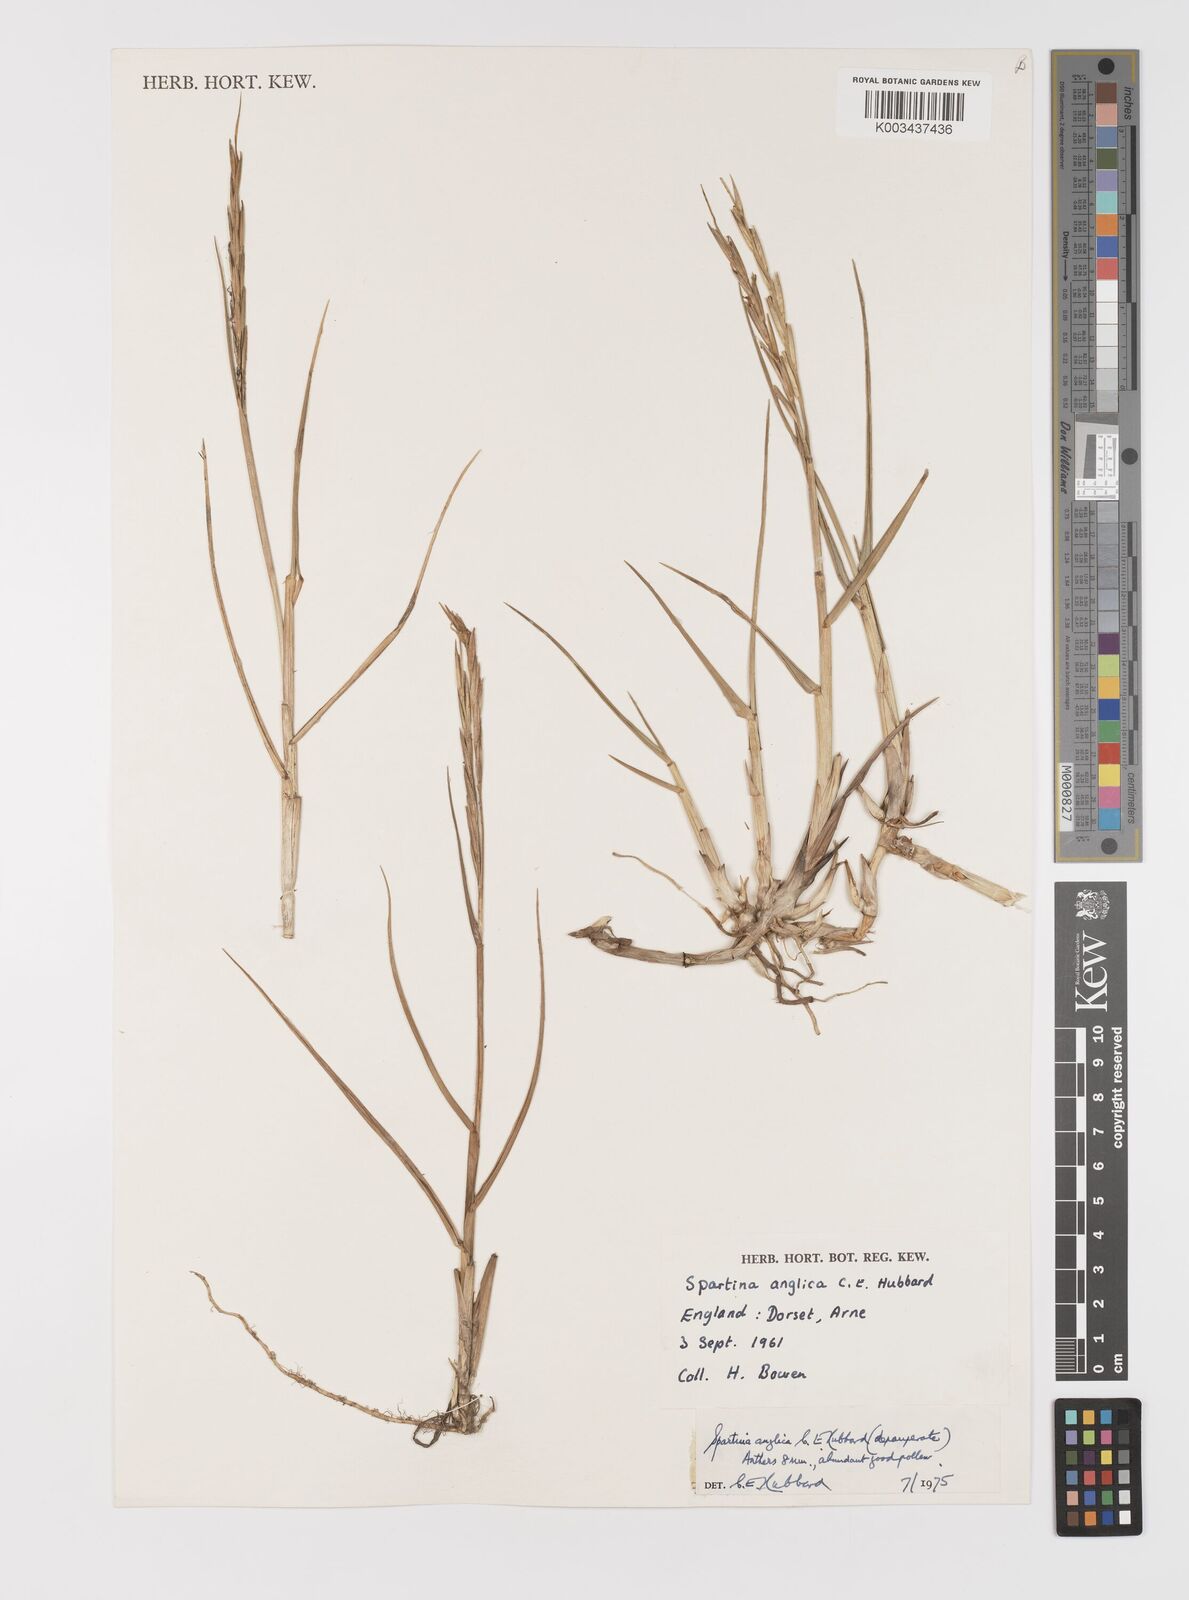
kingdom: Plantae
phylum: Tracheophyta
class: Liliopsida
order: Poales
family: Poaceae
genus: Sporobolus
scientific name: Sporobolus anglicus
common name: English cordgrass
